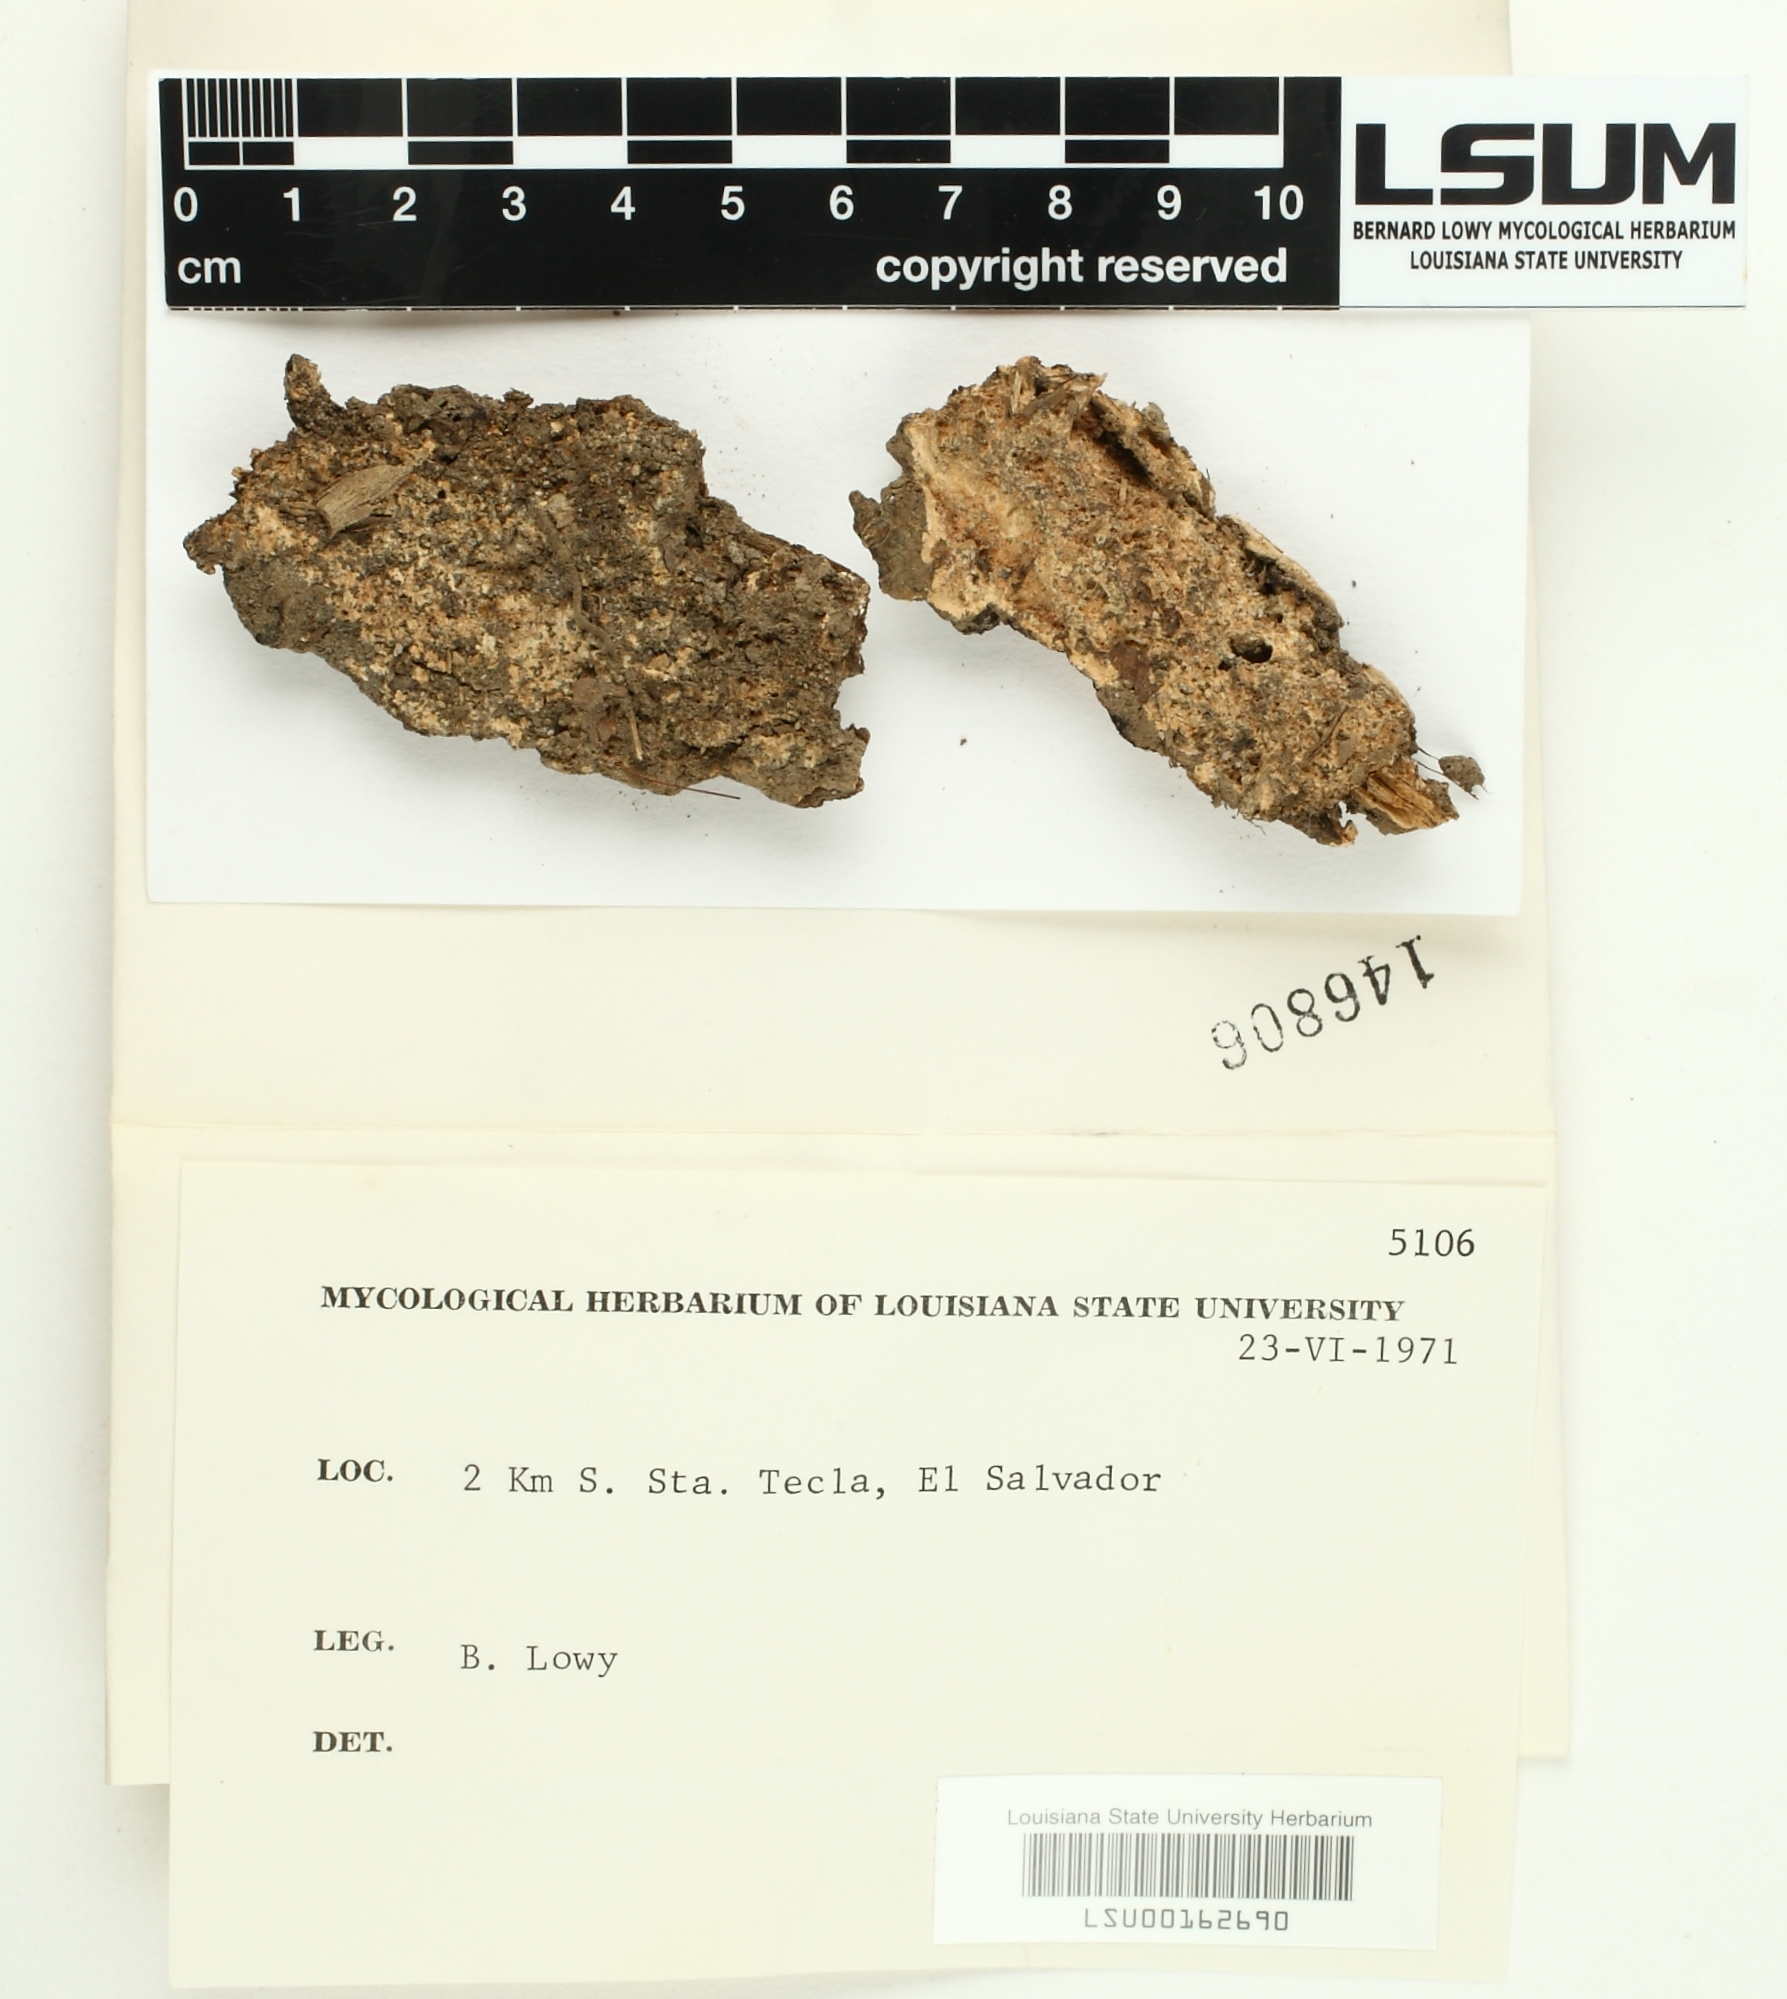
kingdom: Fungi
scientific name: Fungi
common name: Fungi
